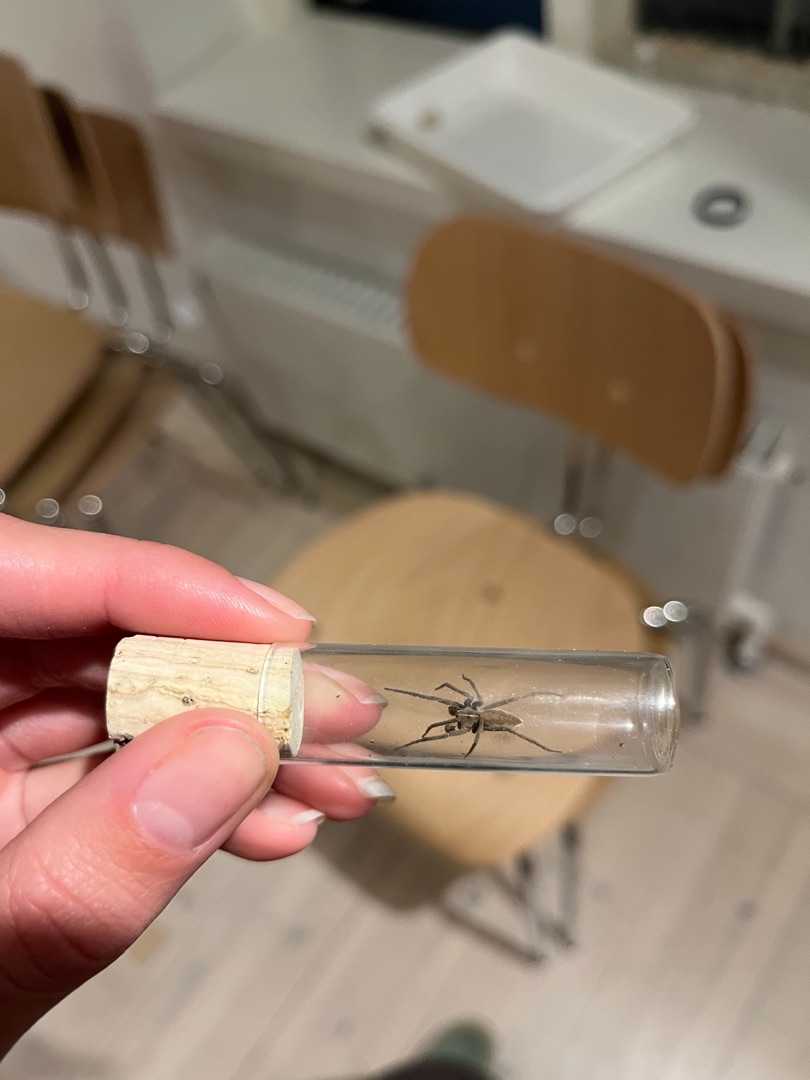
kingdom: Animalia
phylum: Arthropoda
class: Arachnida
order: Araneae
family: Pisauridae
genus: Pisaura
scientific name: Pisaura mirabilis
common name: Almindelig rovedderkop
